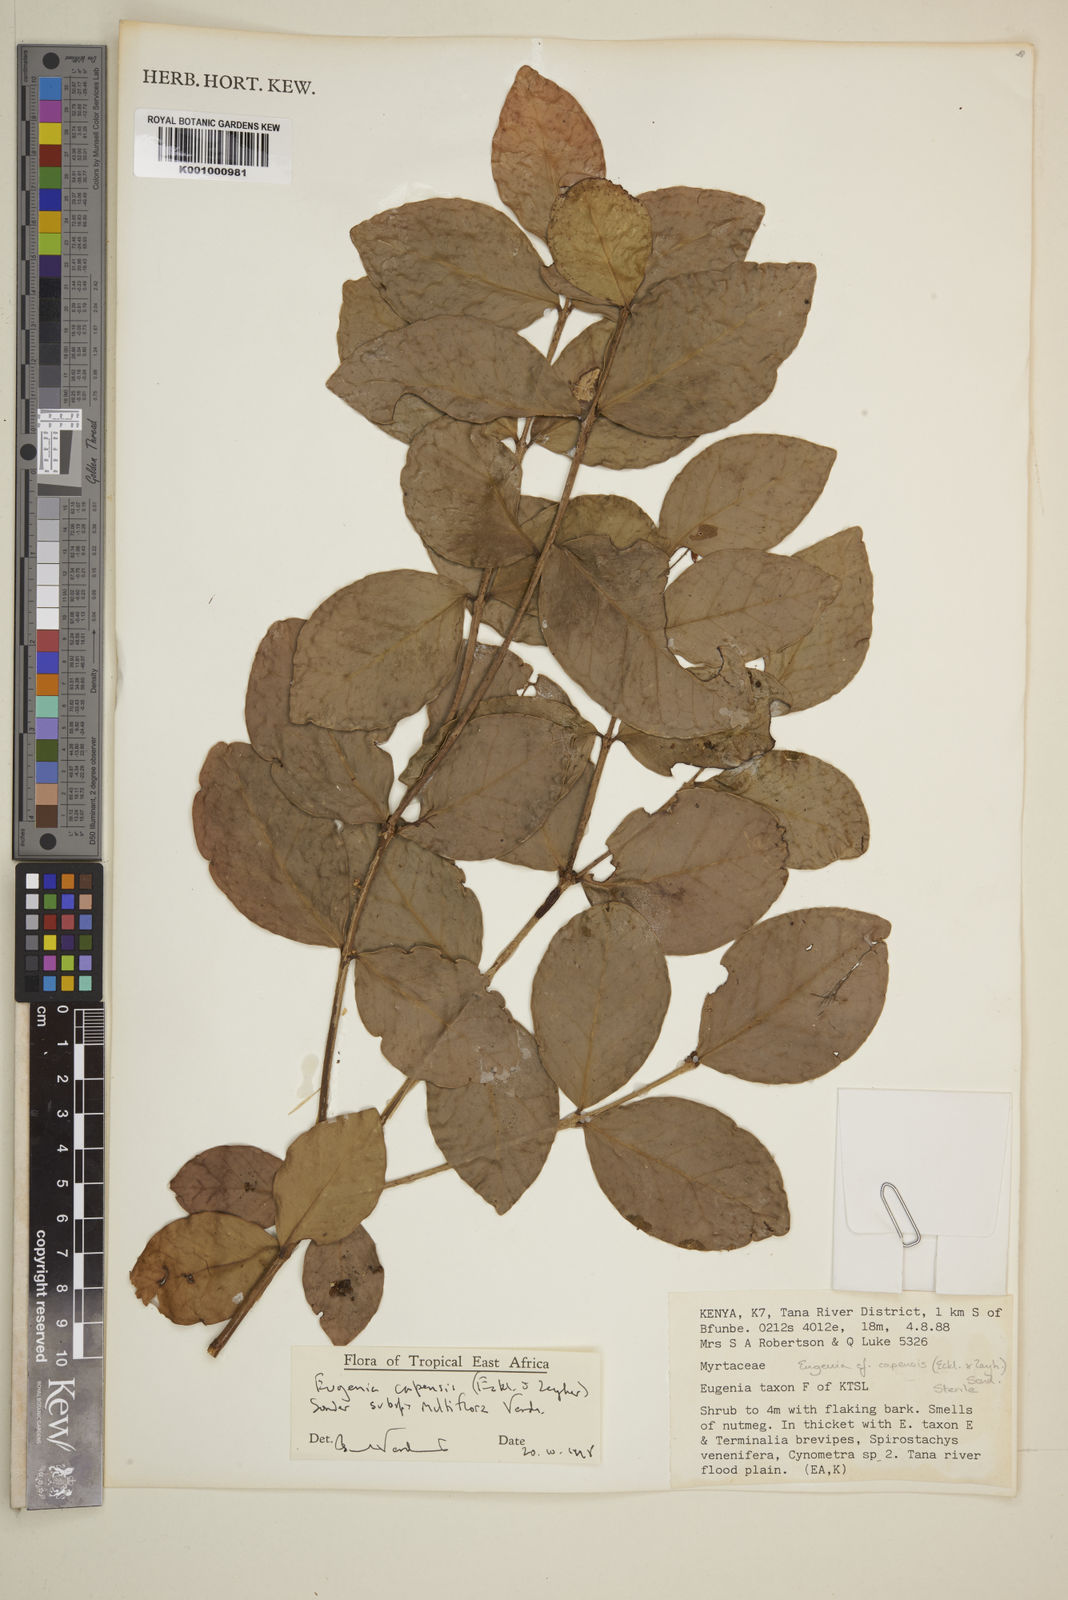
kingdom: Plantae
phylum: Tracheophyta
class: Magnoliopsida
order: Myrtales
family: Myrtaceae
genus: Eugenia
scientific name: Eugenia capensis
